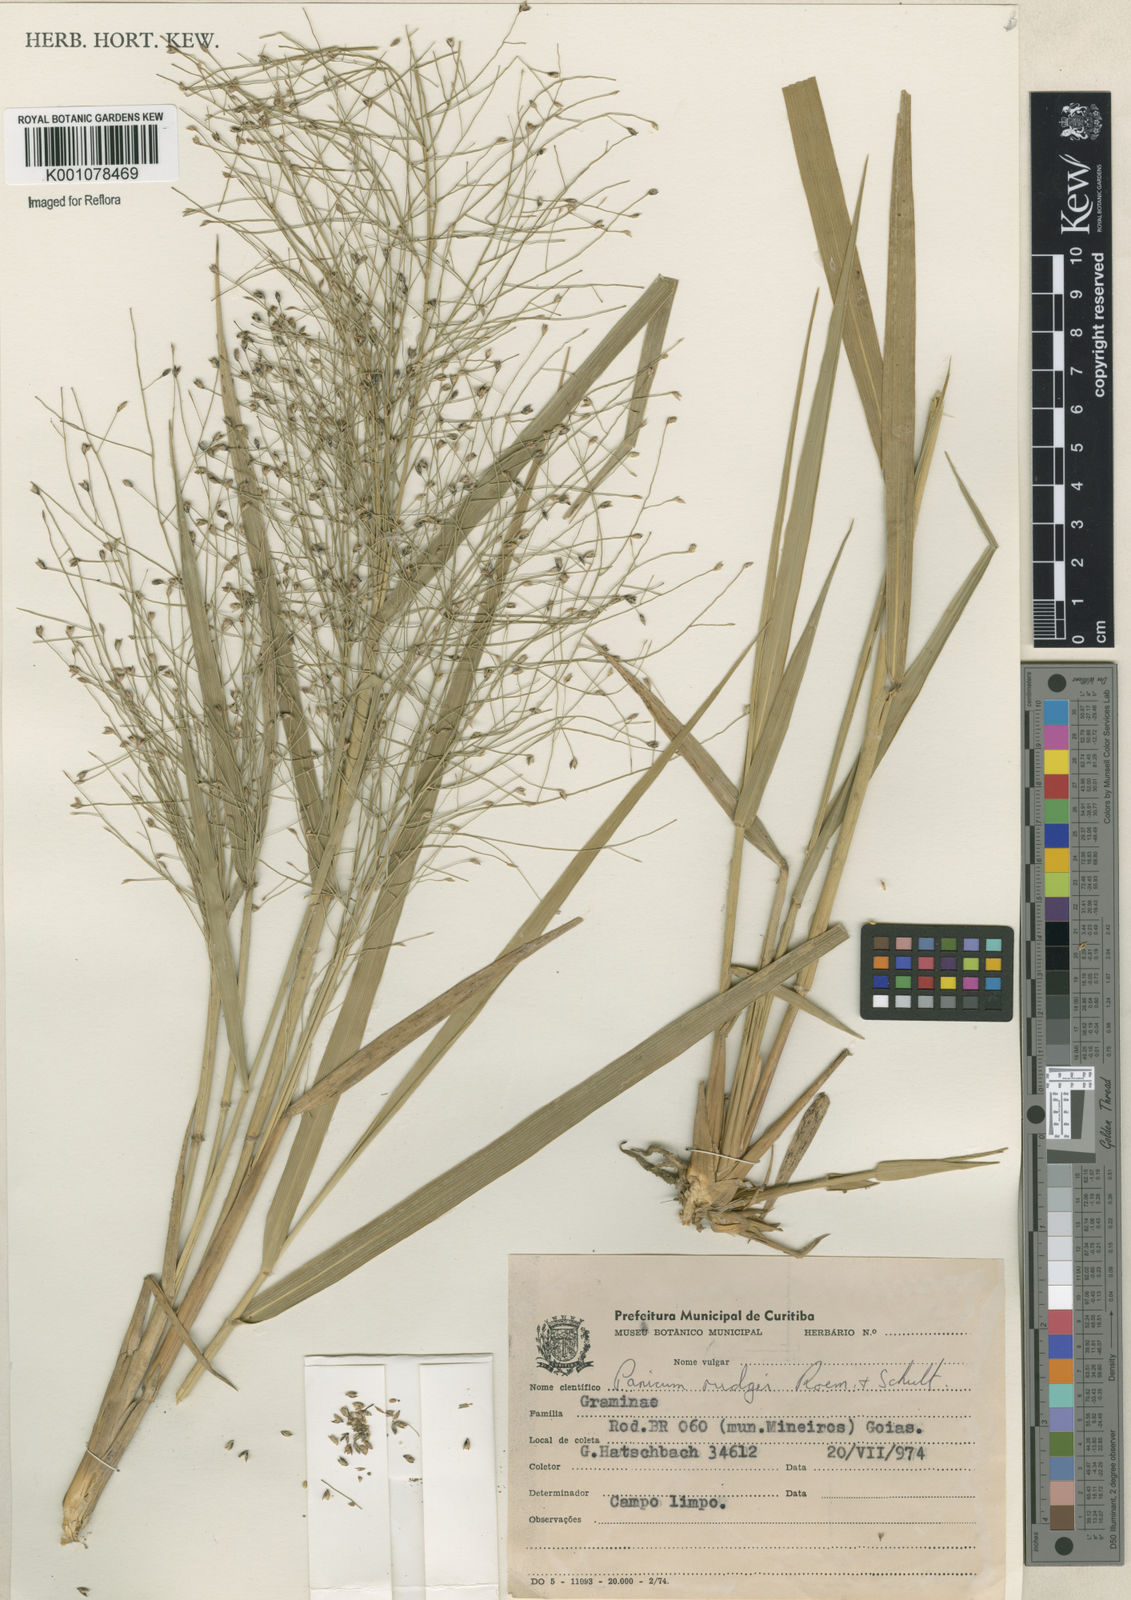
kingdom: Plantae
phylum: Tracheophyta
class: Liliopsida
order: Poales
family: Poaceae
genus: Panicum
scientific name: Panicum rudgei
